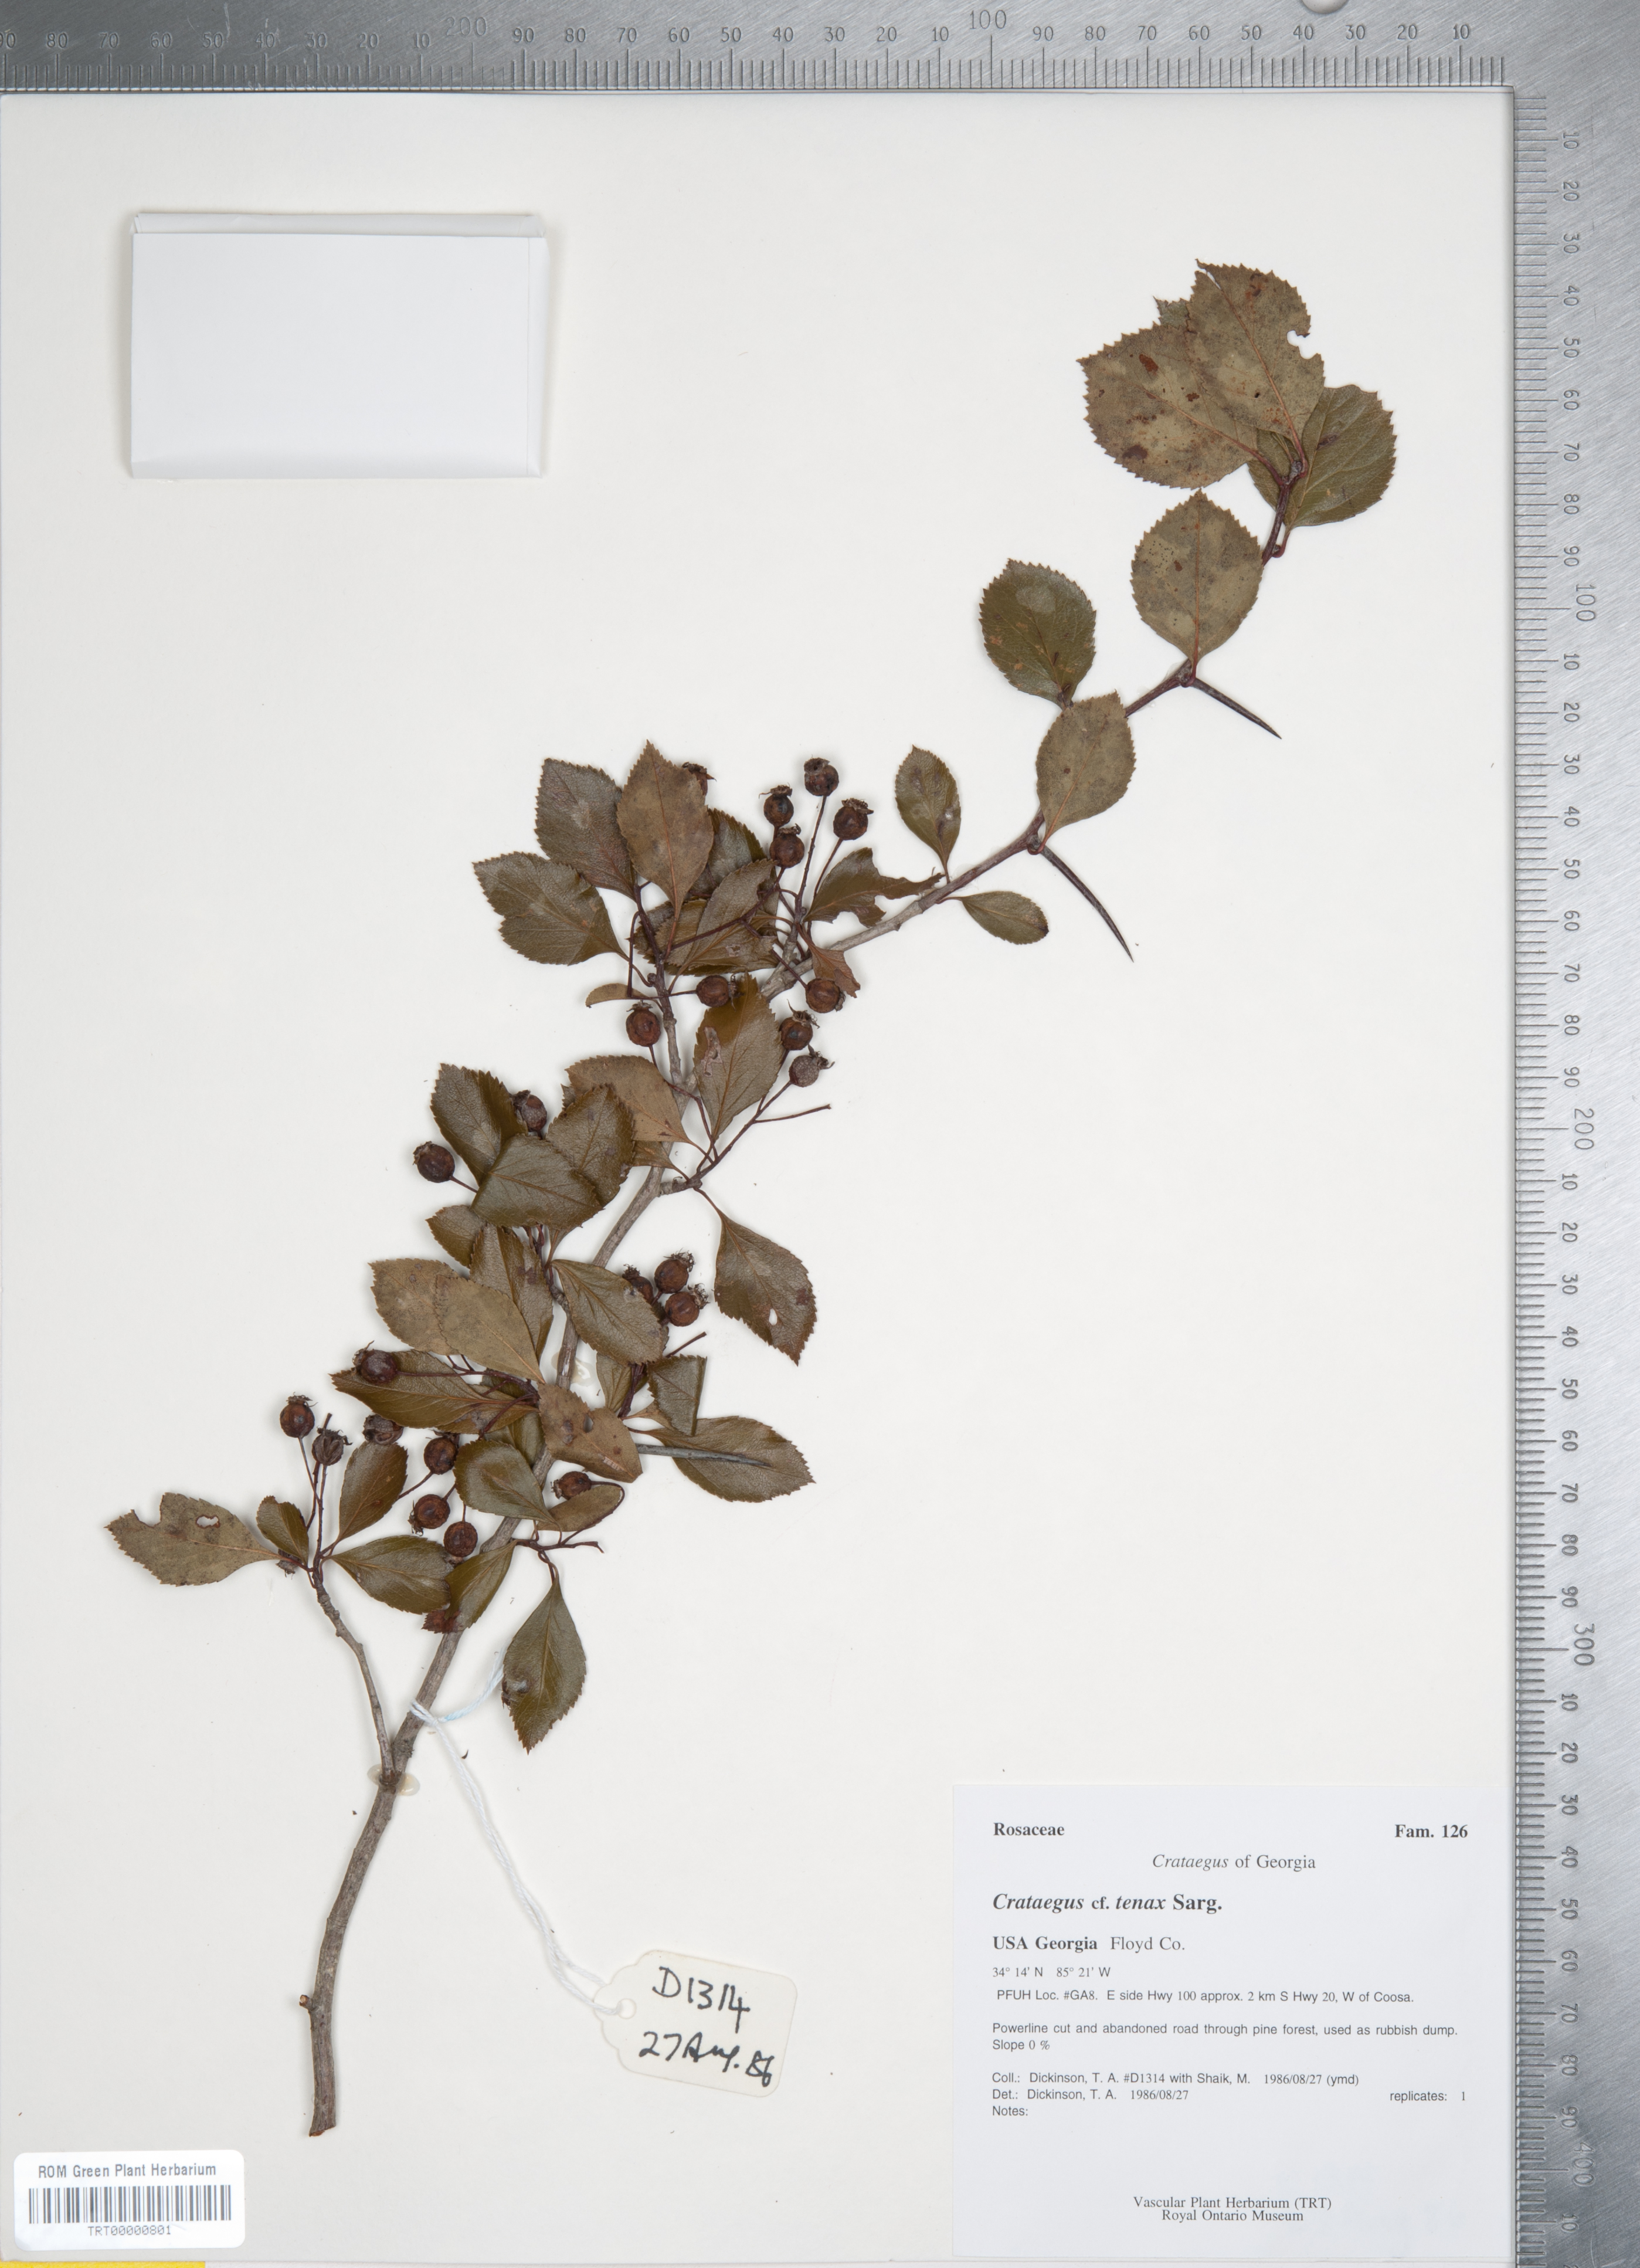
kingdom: Plantae
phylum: Tracheophyta
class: Magnoliopsida
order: Rosales
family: Rosaceae
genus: Crataegus
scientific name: Crataegus crus-galli
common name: Cockspurthorn
